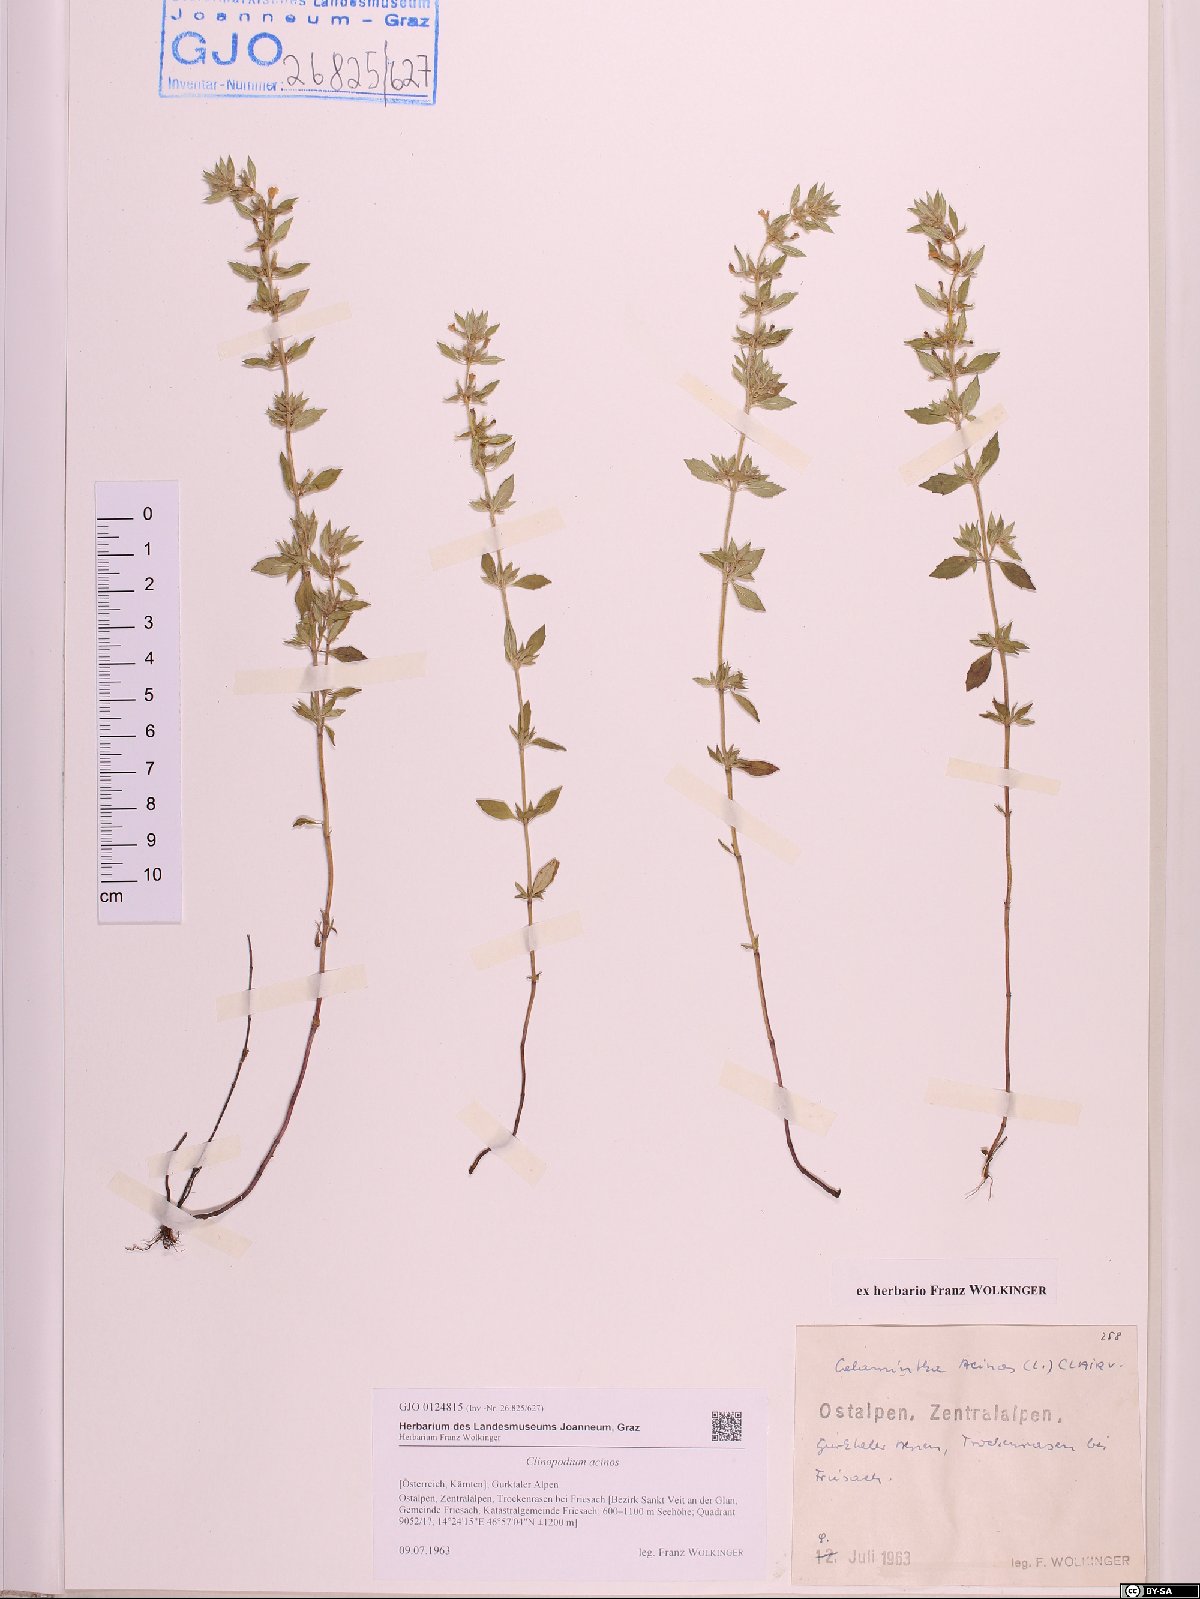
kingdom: Plantae
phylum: Tracheophyta
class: Magnoliopsida
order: Lamiales
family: Lamiaceae
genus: Clinopodium
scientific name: Clinopodium acinos
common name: Basil thyme
